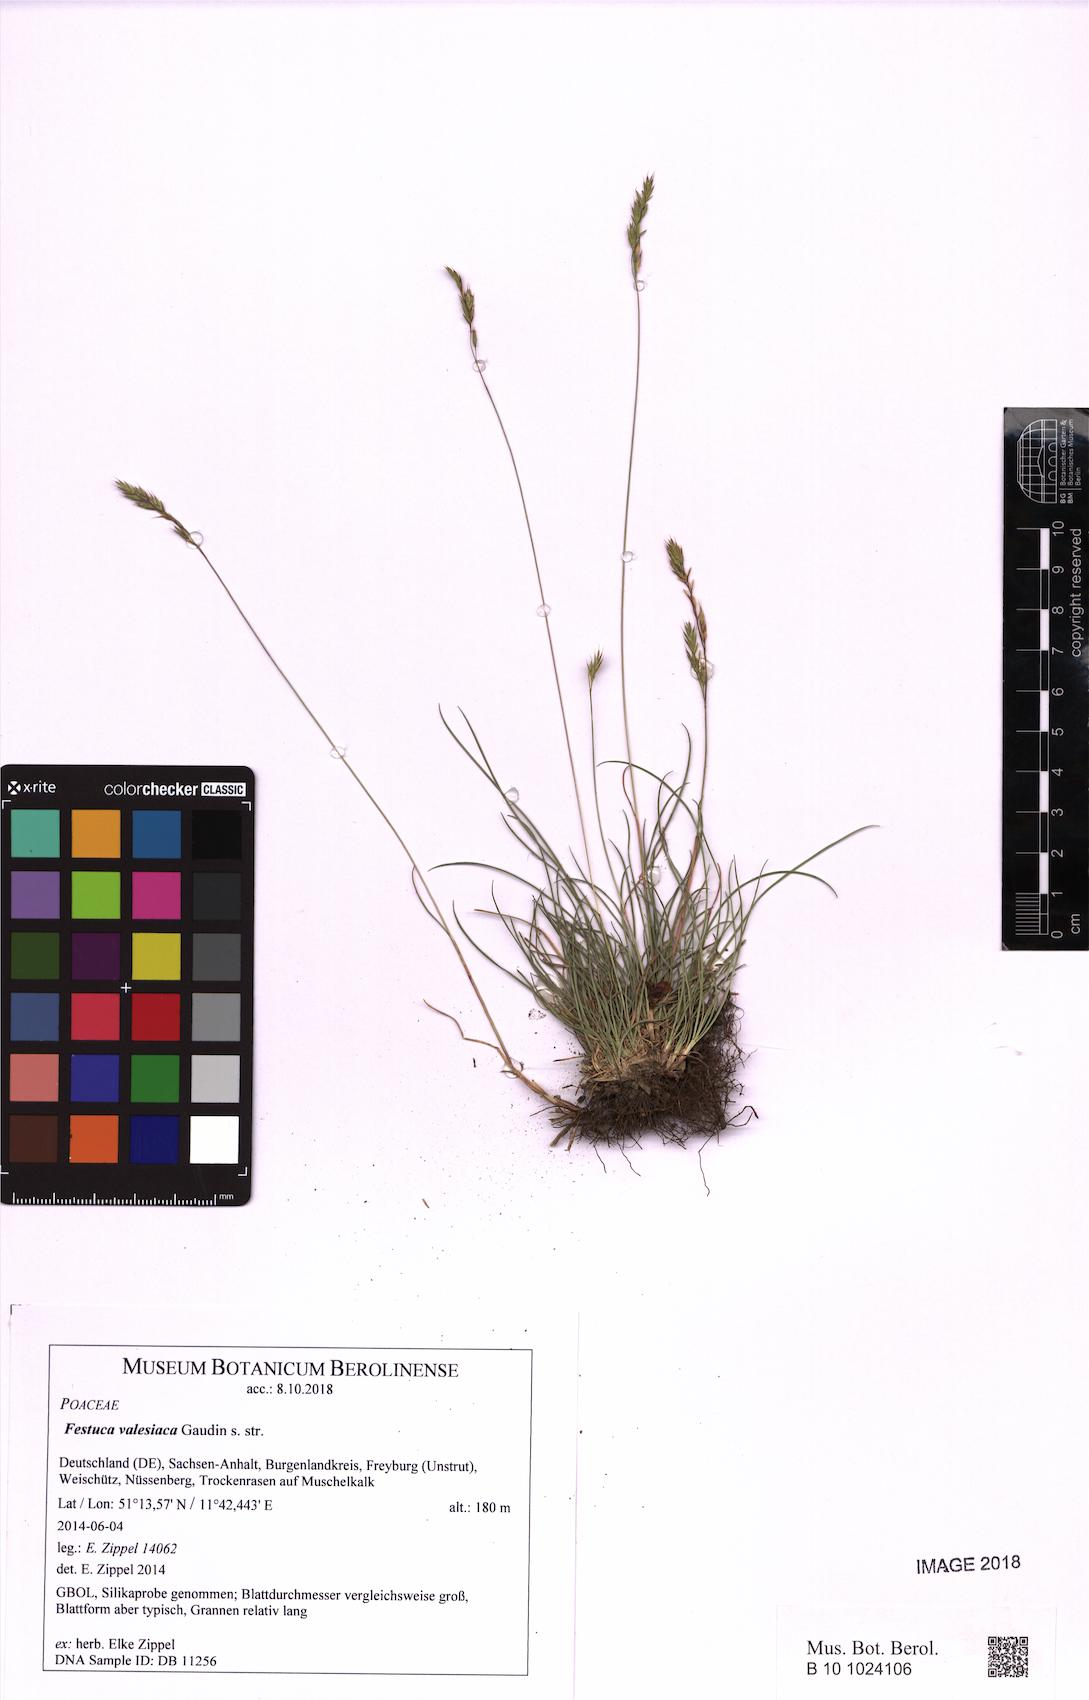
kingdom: Plantae
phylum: Tracheophyta
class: Liliopsida
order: Poales
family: Poaceae
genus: Festuca
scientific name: Festuca valesiaca
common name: Volga fescue
